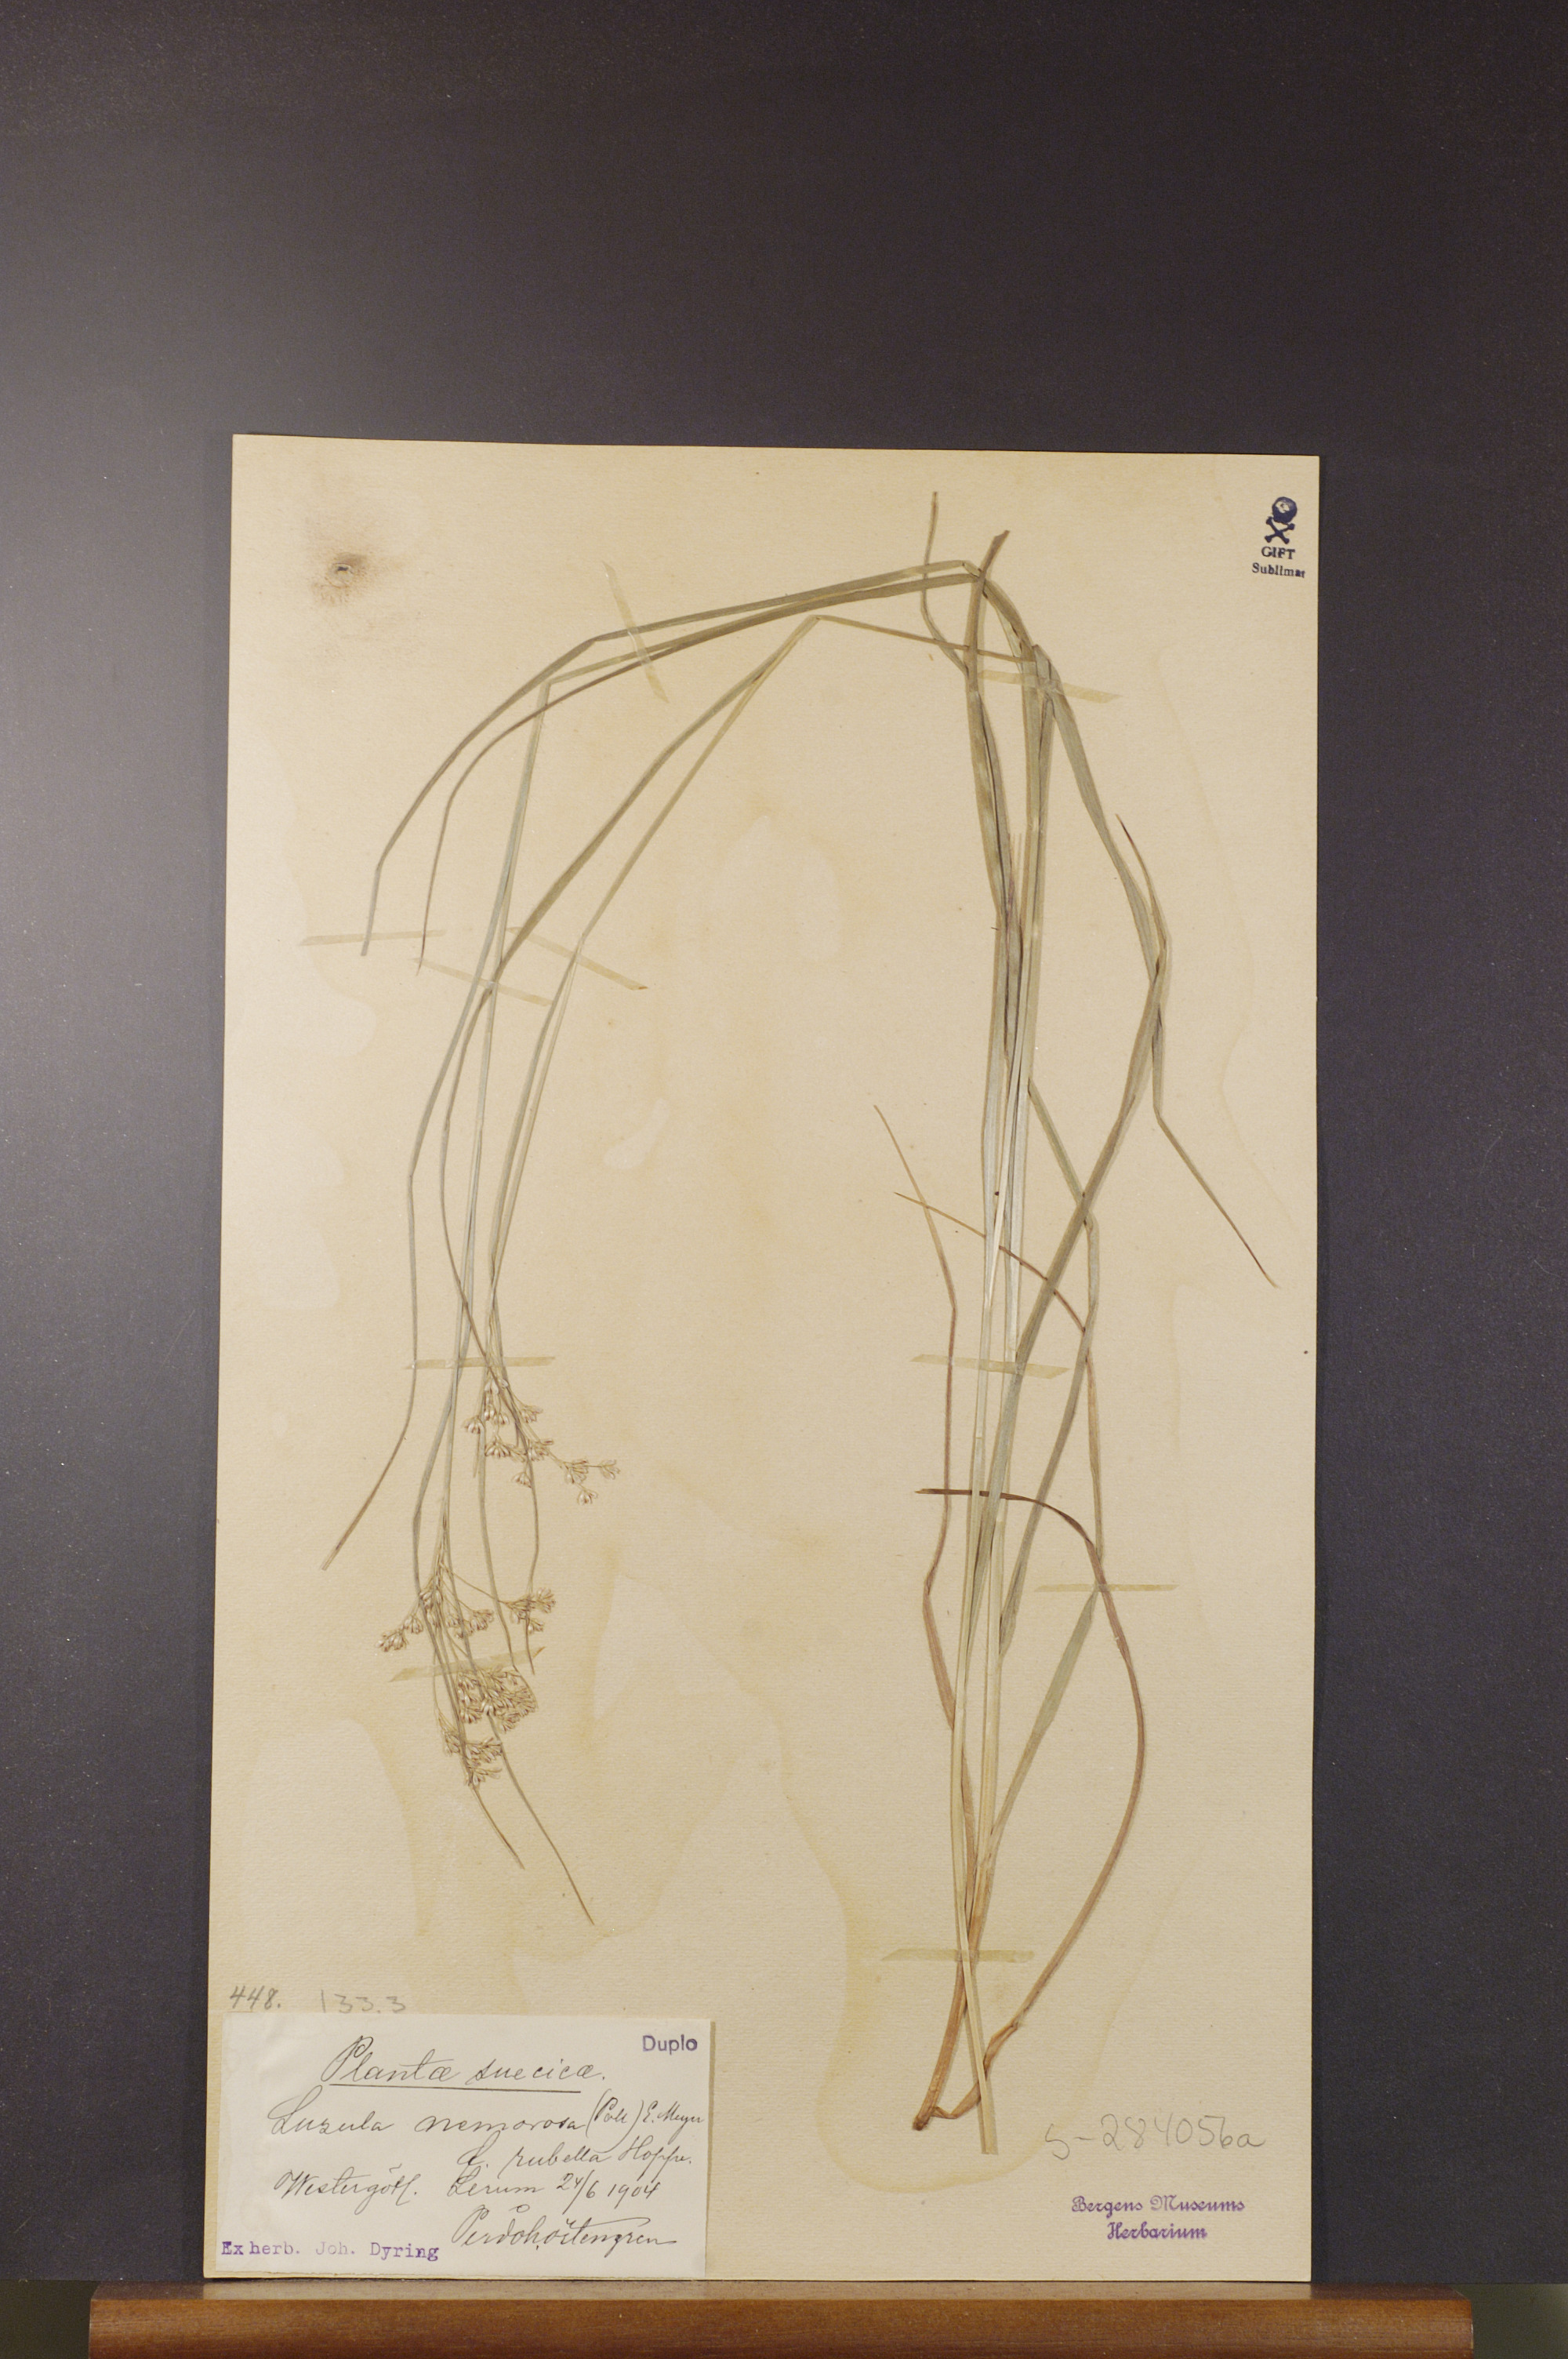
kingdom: Plantae
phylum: Tracheophyta
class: Liliopsida
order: Poales
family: Juncaceae
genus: Luzula
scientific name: Luzula luzuloides
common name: White wood-rush
